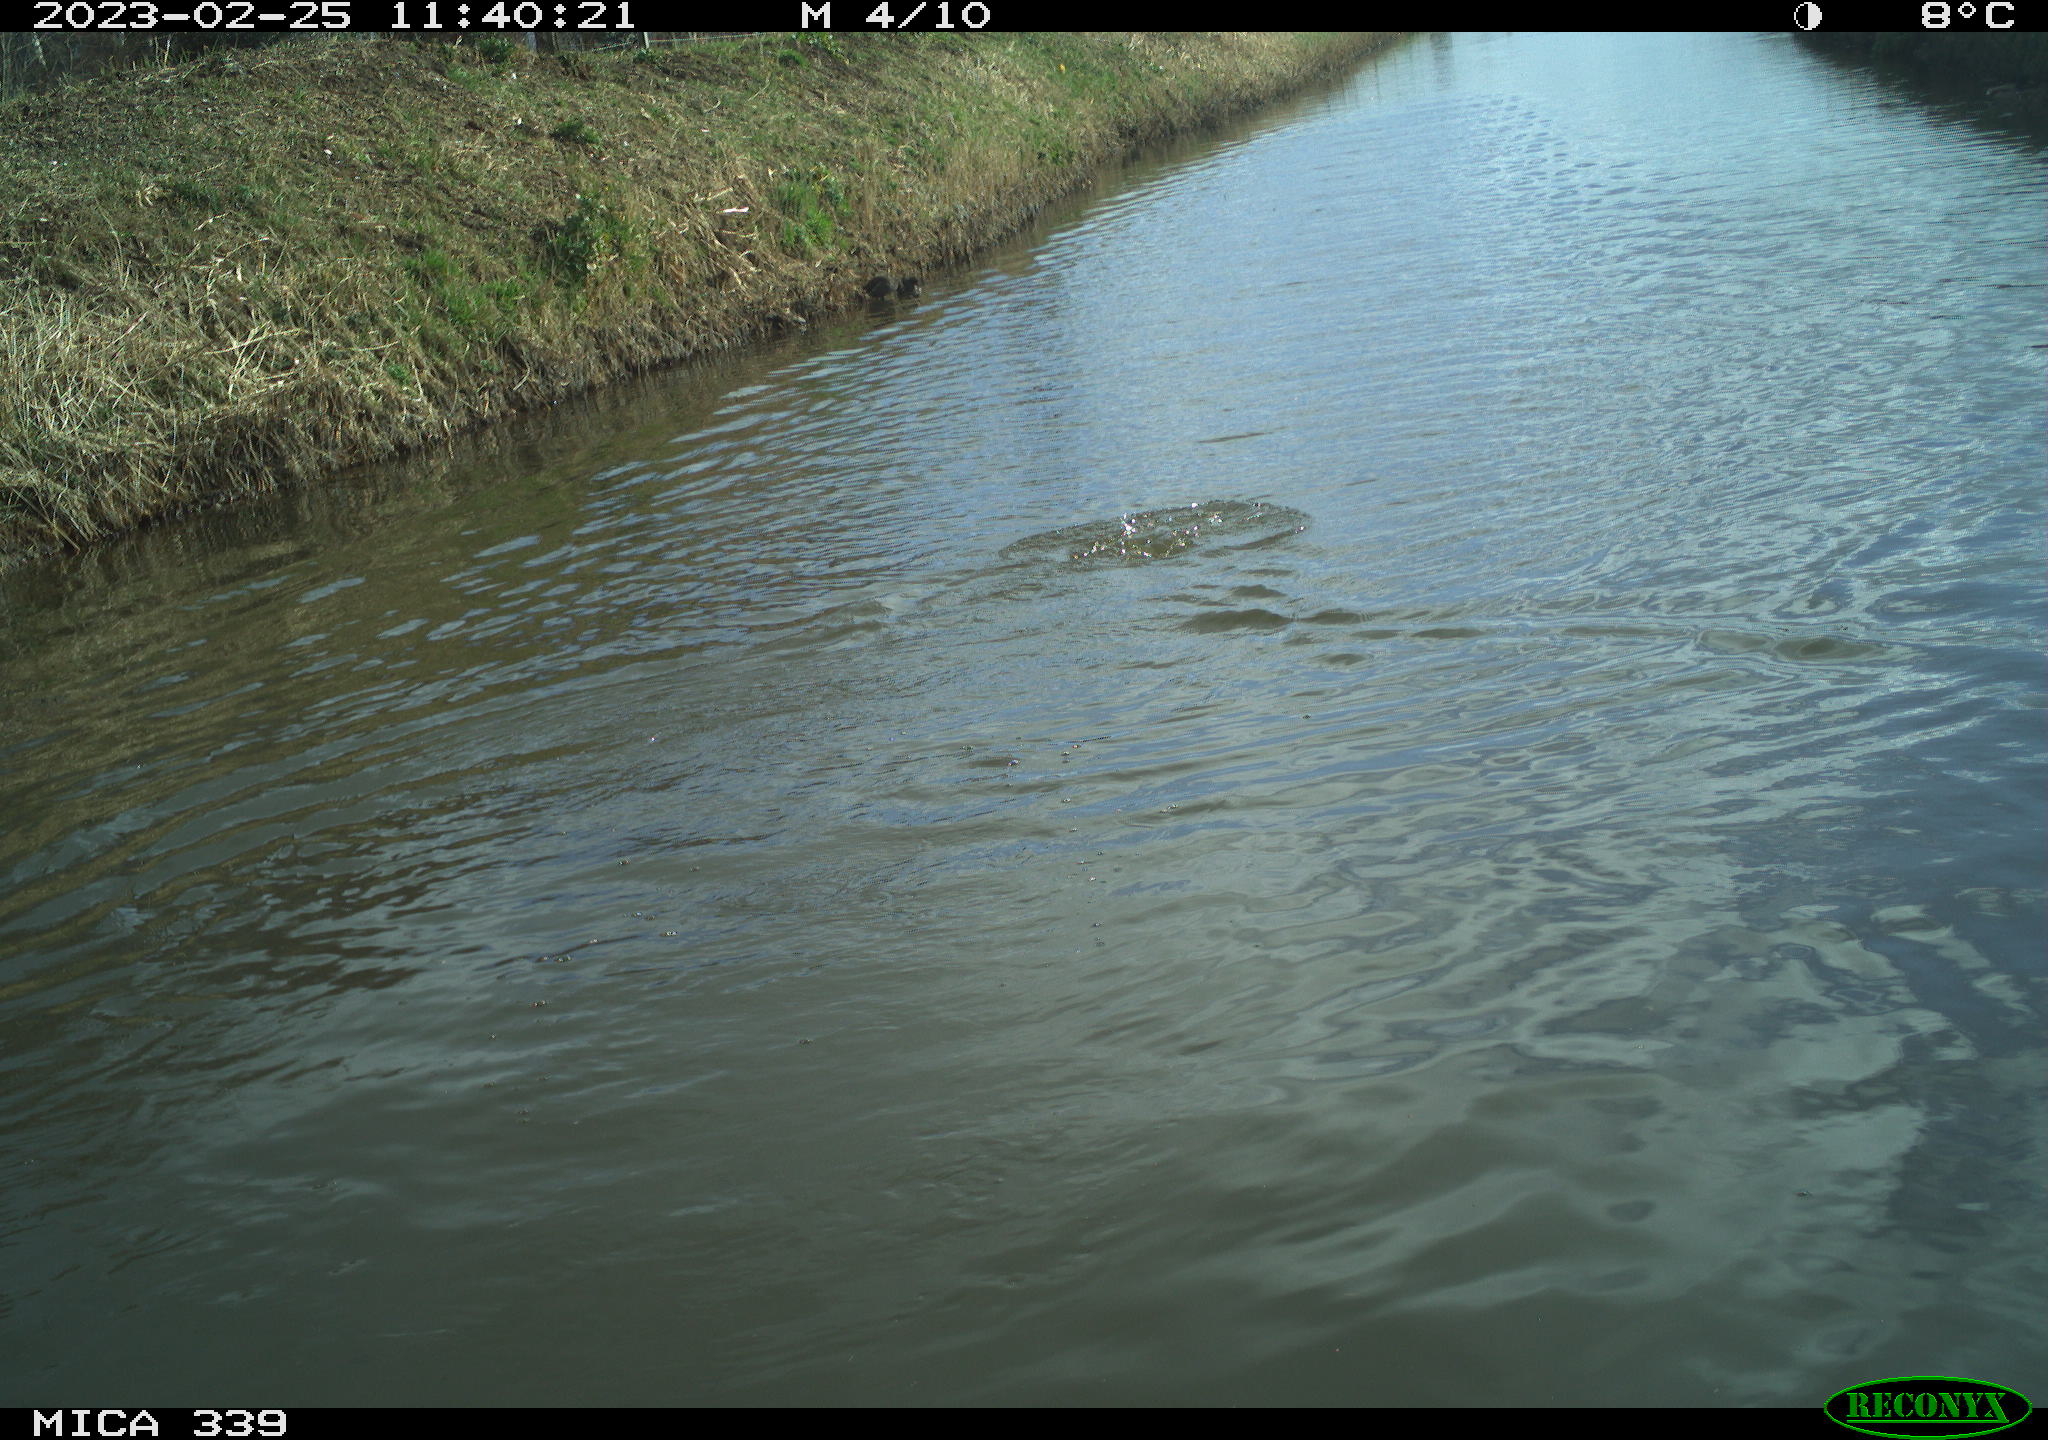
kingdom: Animalia
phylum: Chordata
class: Aves
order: Suliformes
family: Phalacrocoracidae
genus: Phalacrocorax
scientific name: Phalacrocorax carbo
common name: Great cormorant
